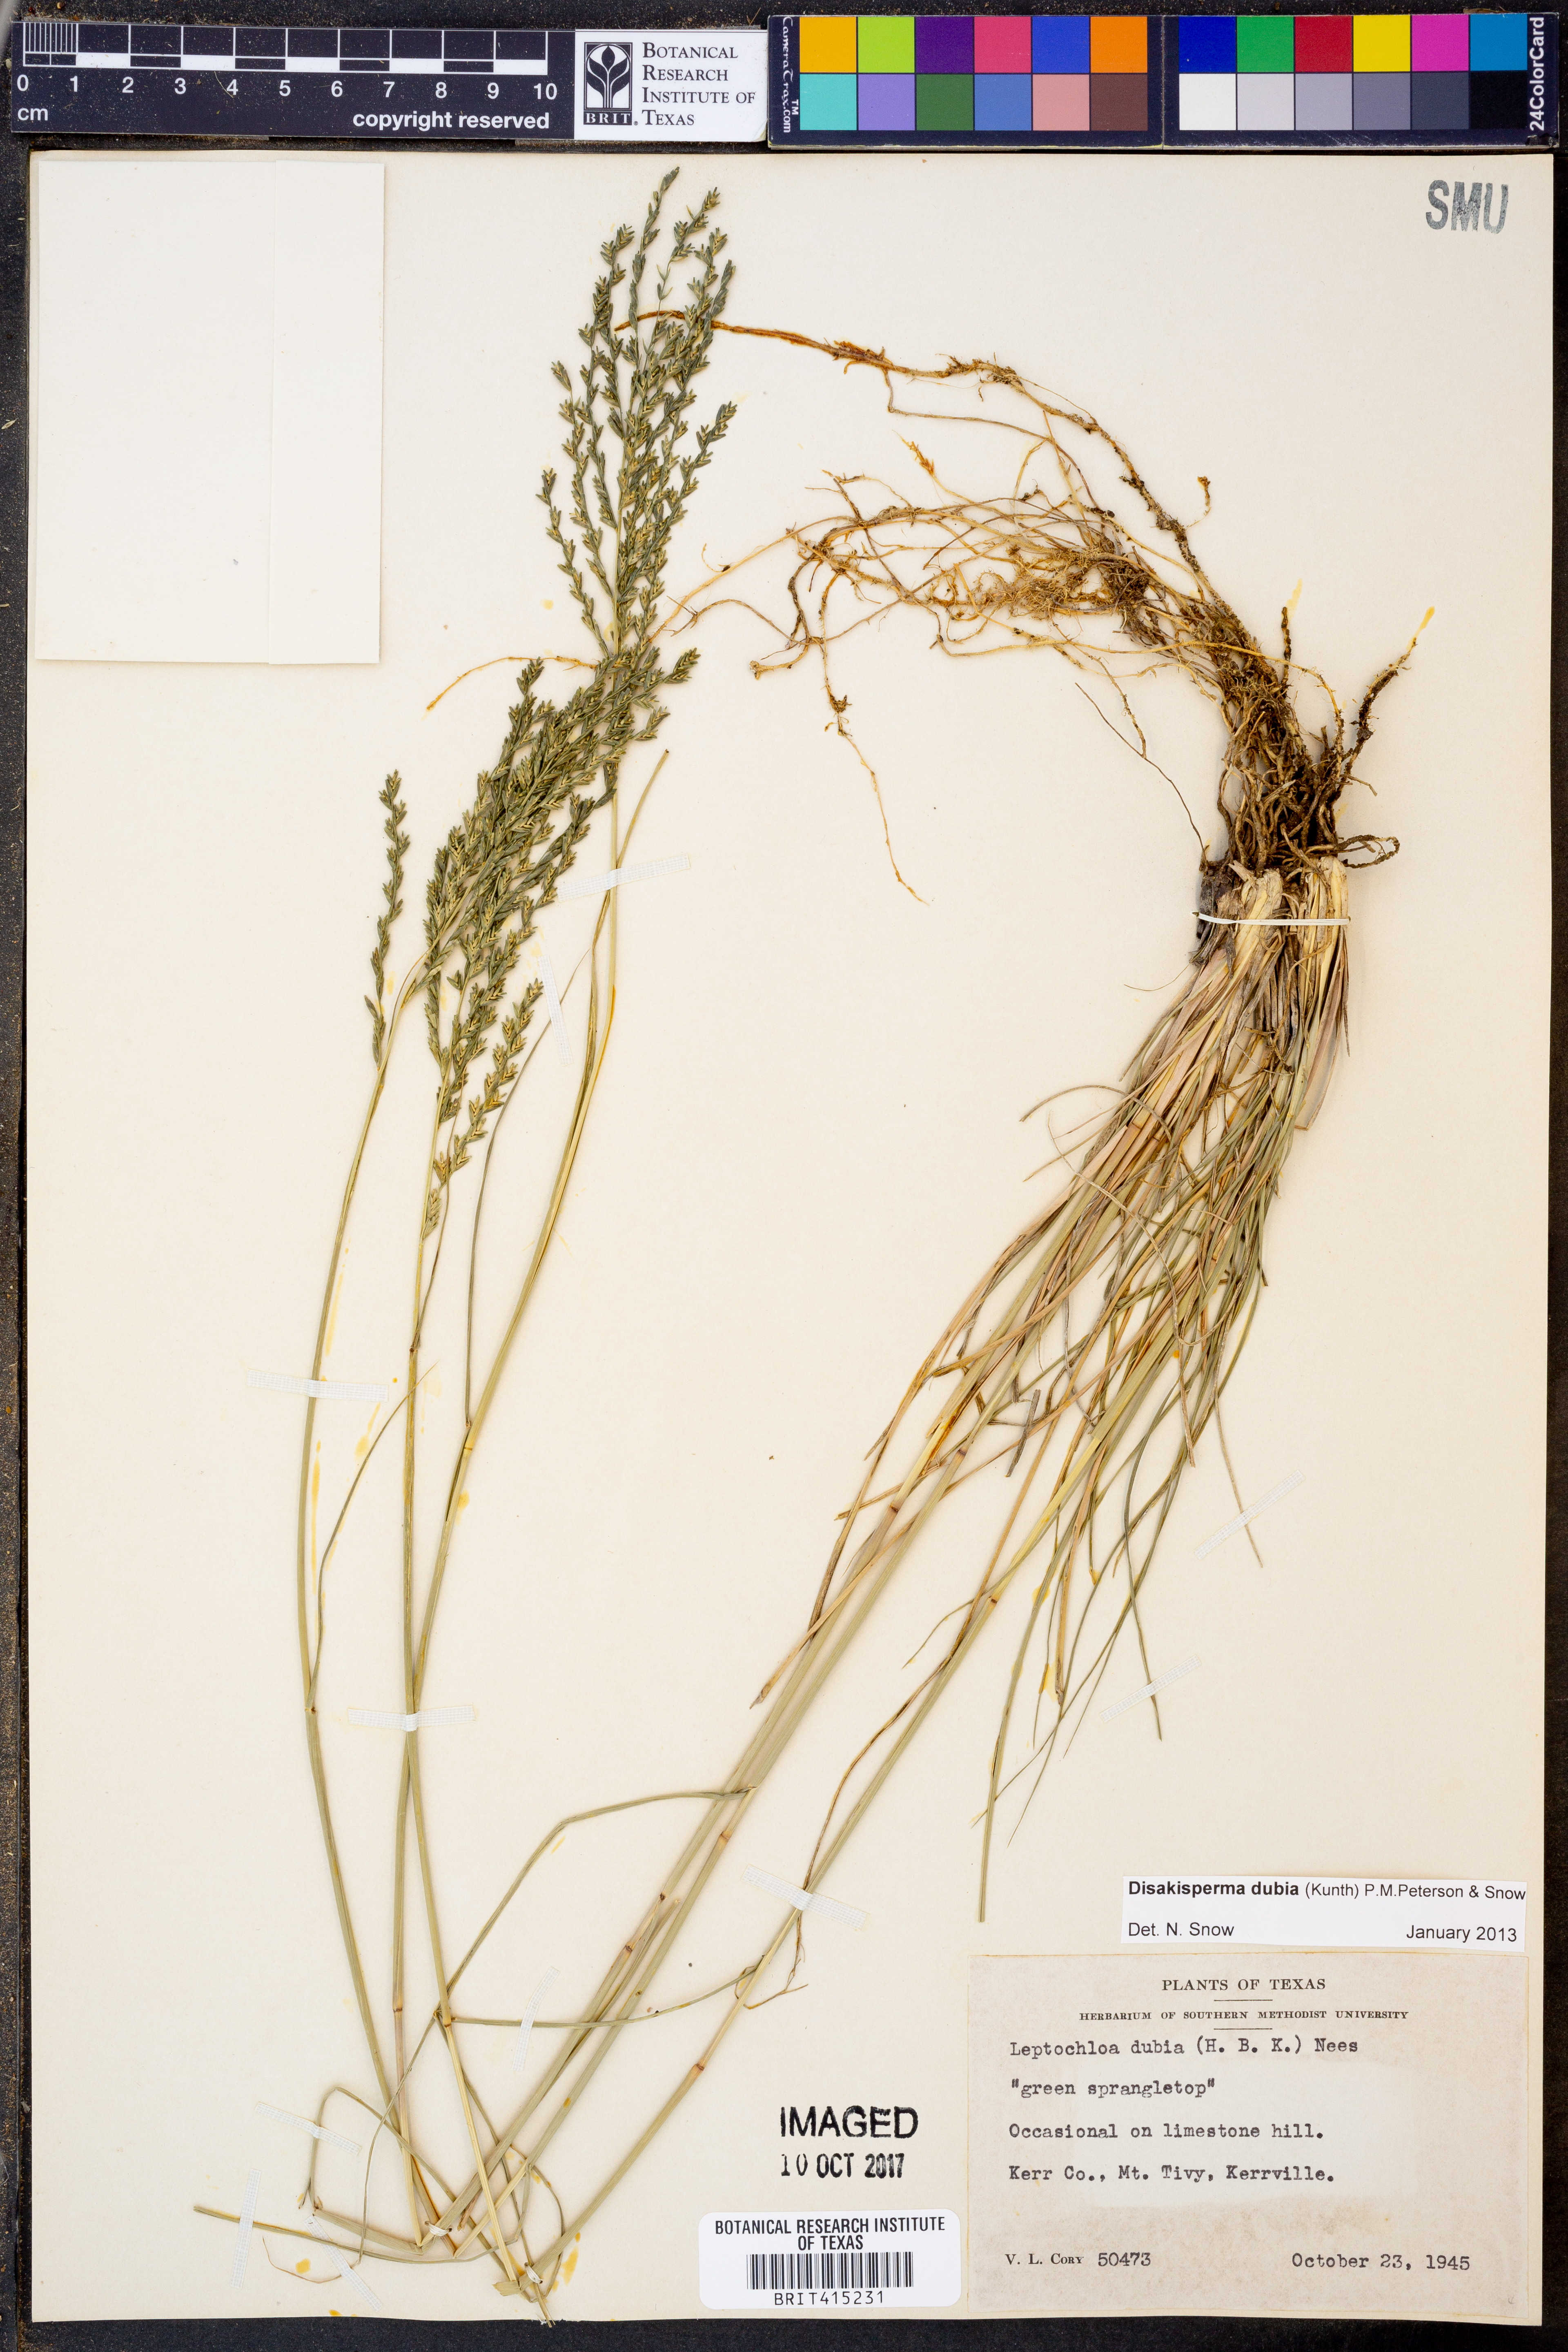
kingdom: Plantae
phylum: Tracheophyta
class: Liliopsida
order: Poales
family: Poaceae
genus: Disakisperma
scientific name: Disakisperma dubium
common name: Green sprangletop
